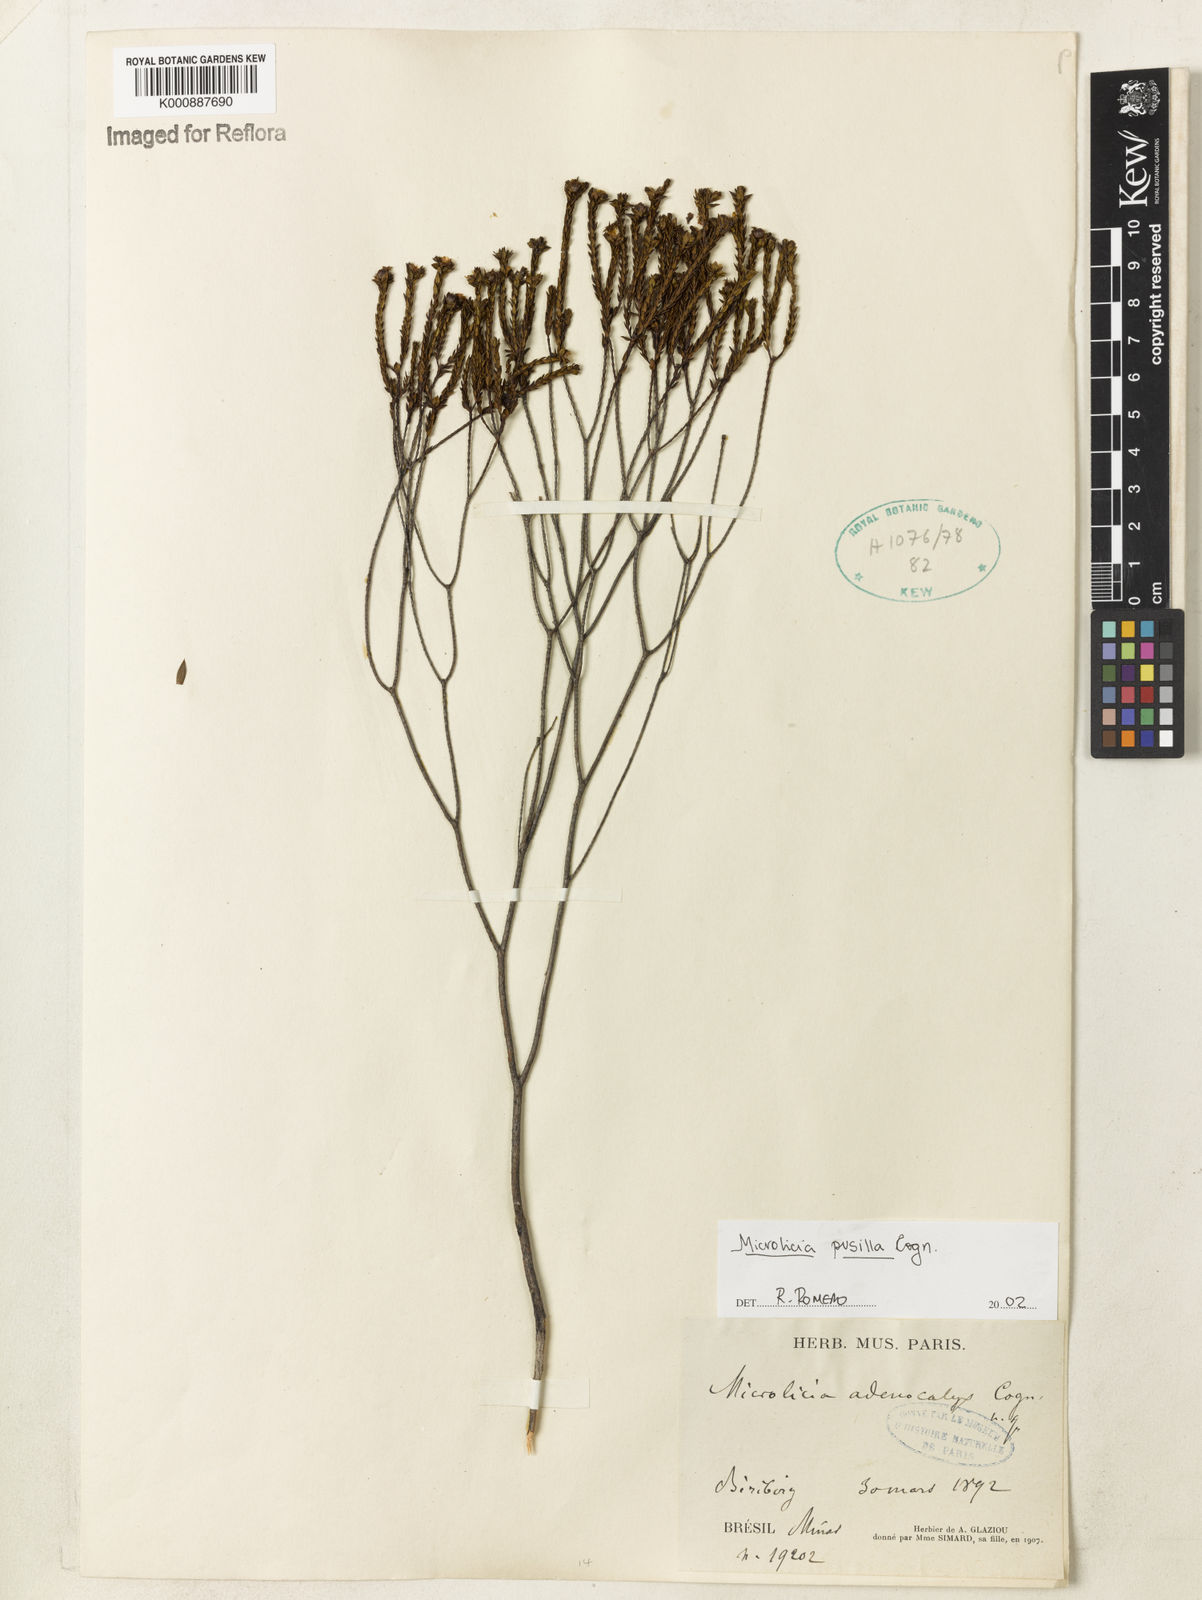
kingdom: Plantae
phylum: Tracheophyta
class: Magnoliopsida
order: Myrtales
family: Melastomataceae
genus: Microlicia
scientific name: Microlicia pusilla
